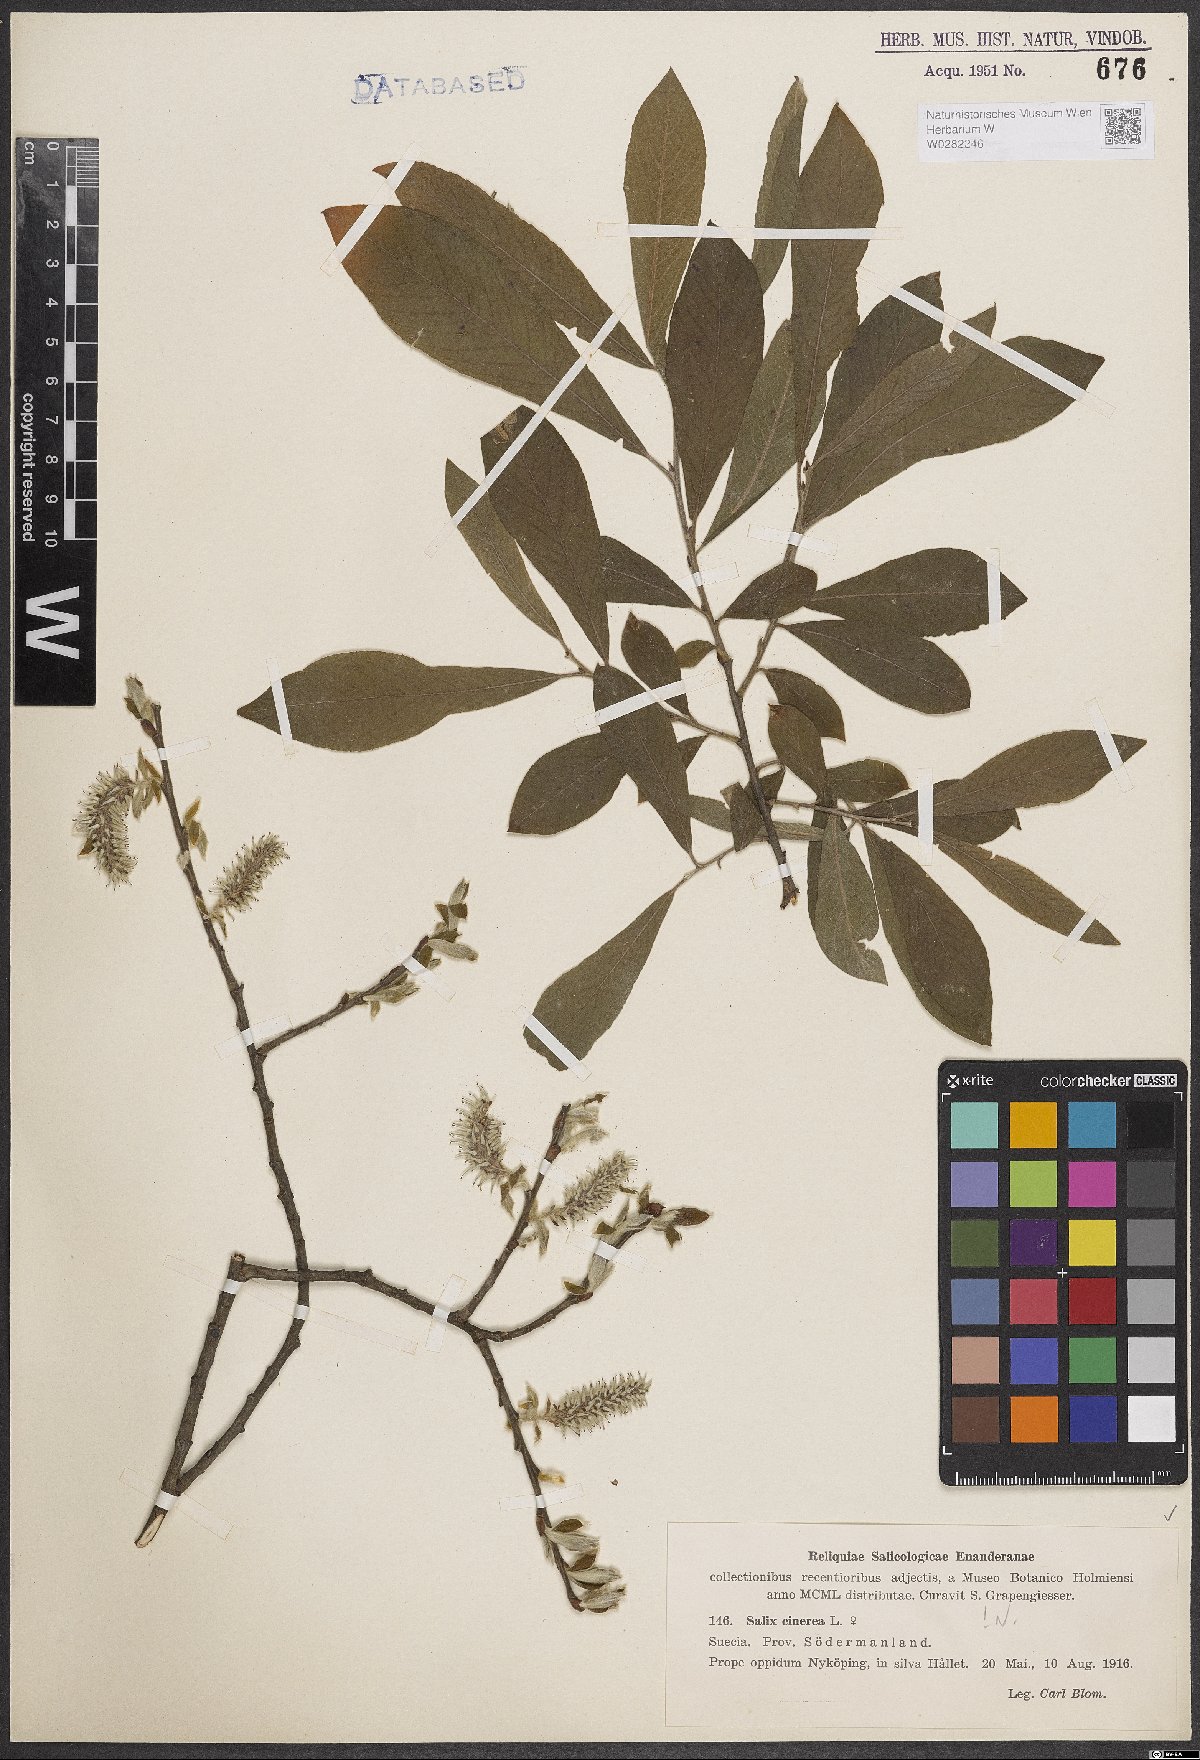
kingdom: Plantae
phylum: Tracheophyta
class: Magnoliopsida
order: Malpighiales
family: Salicaceae
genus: Salix
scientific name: Salix cinerea
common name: Common sallow
